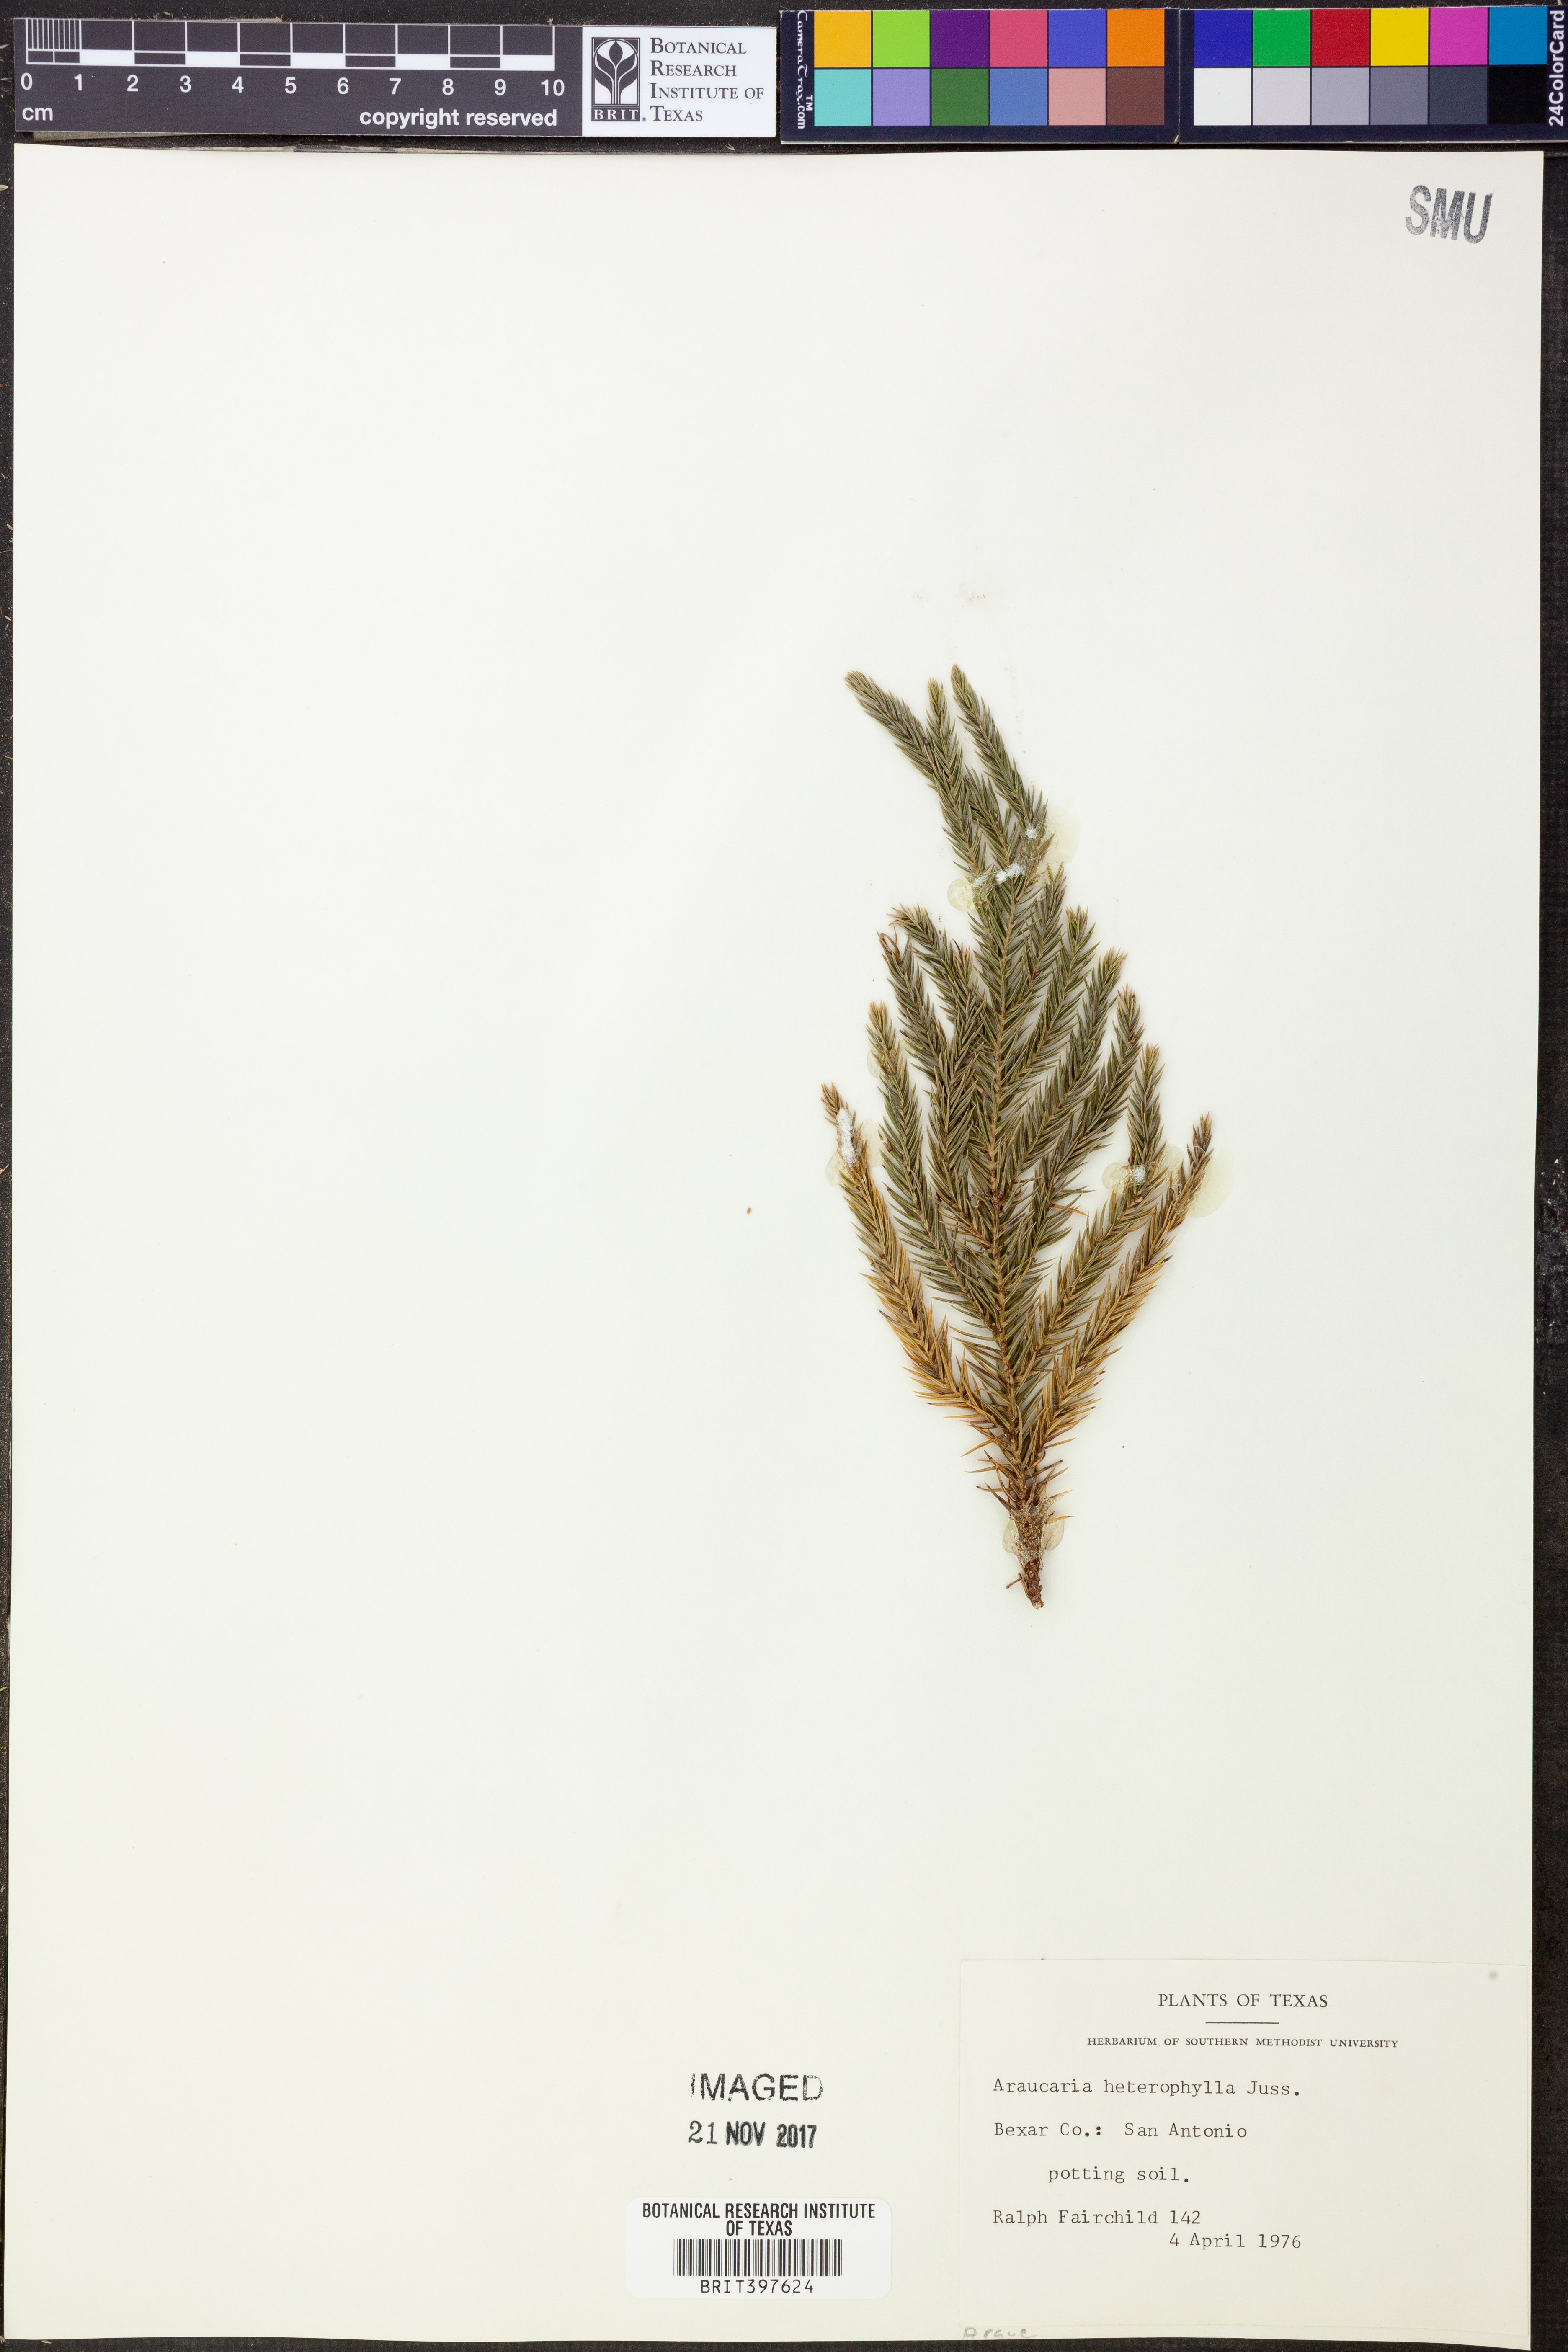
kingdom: Plantae
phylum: Tracheophyta
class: Pinopsida
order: Pinales
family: Araucariaceae
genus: Araucaria
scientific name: Araucaria heterophylla
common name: Norfolk island pine
